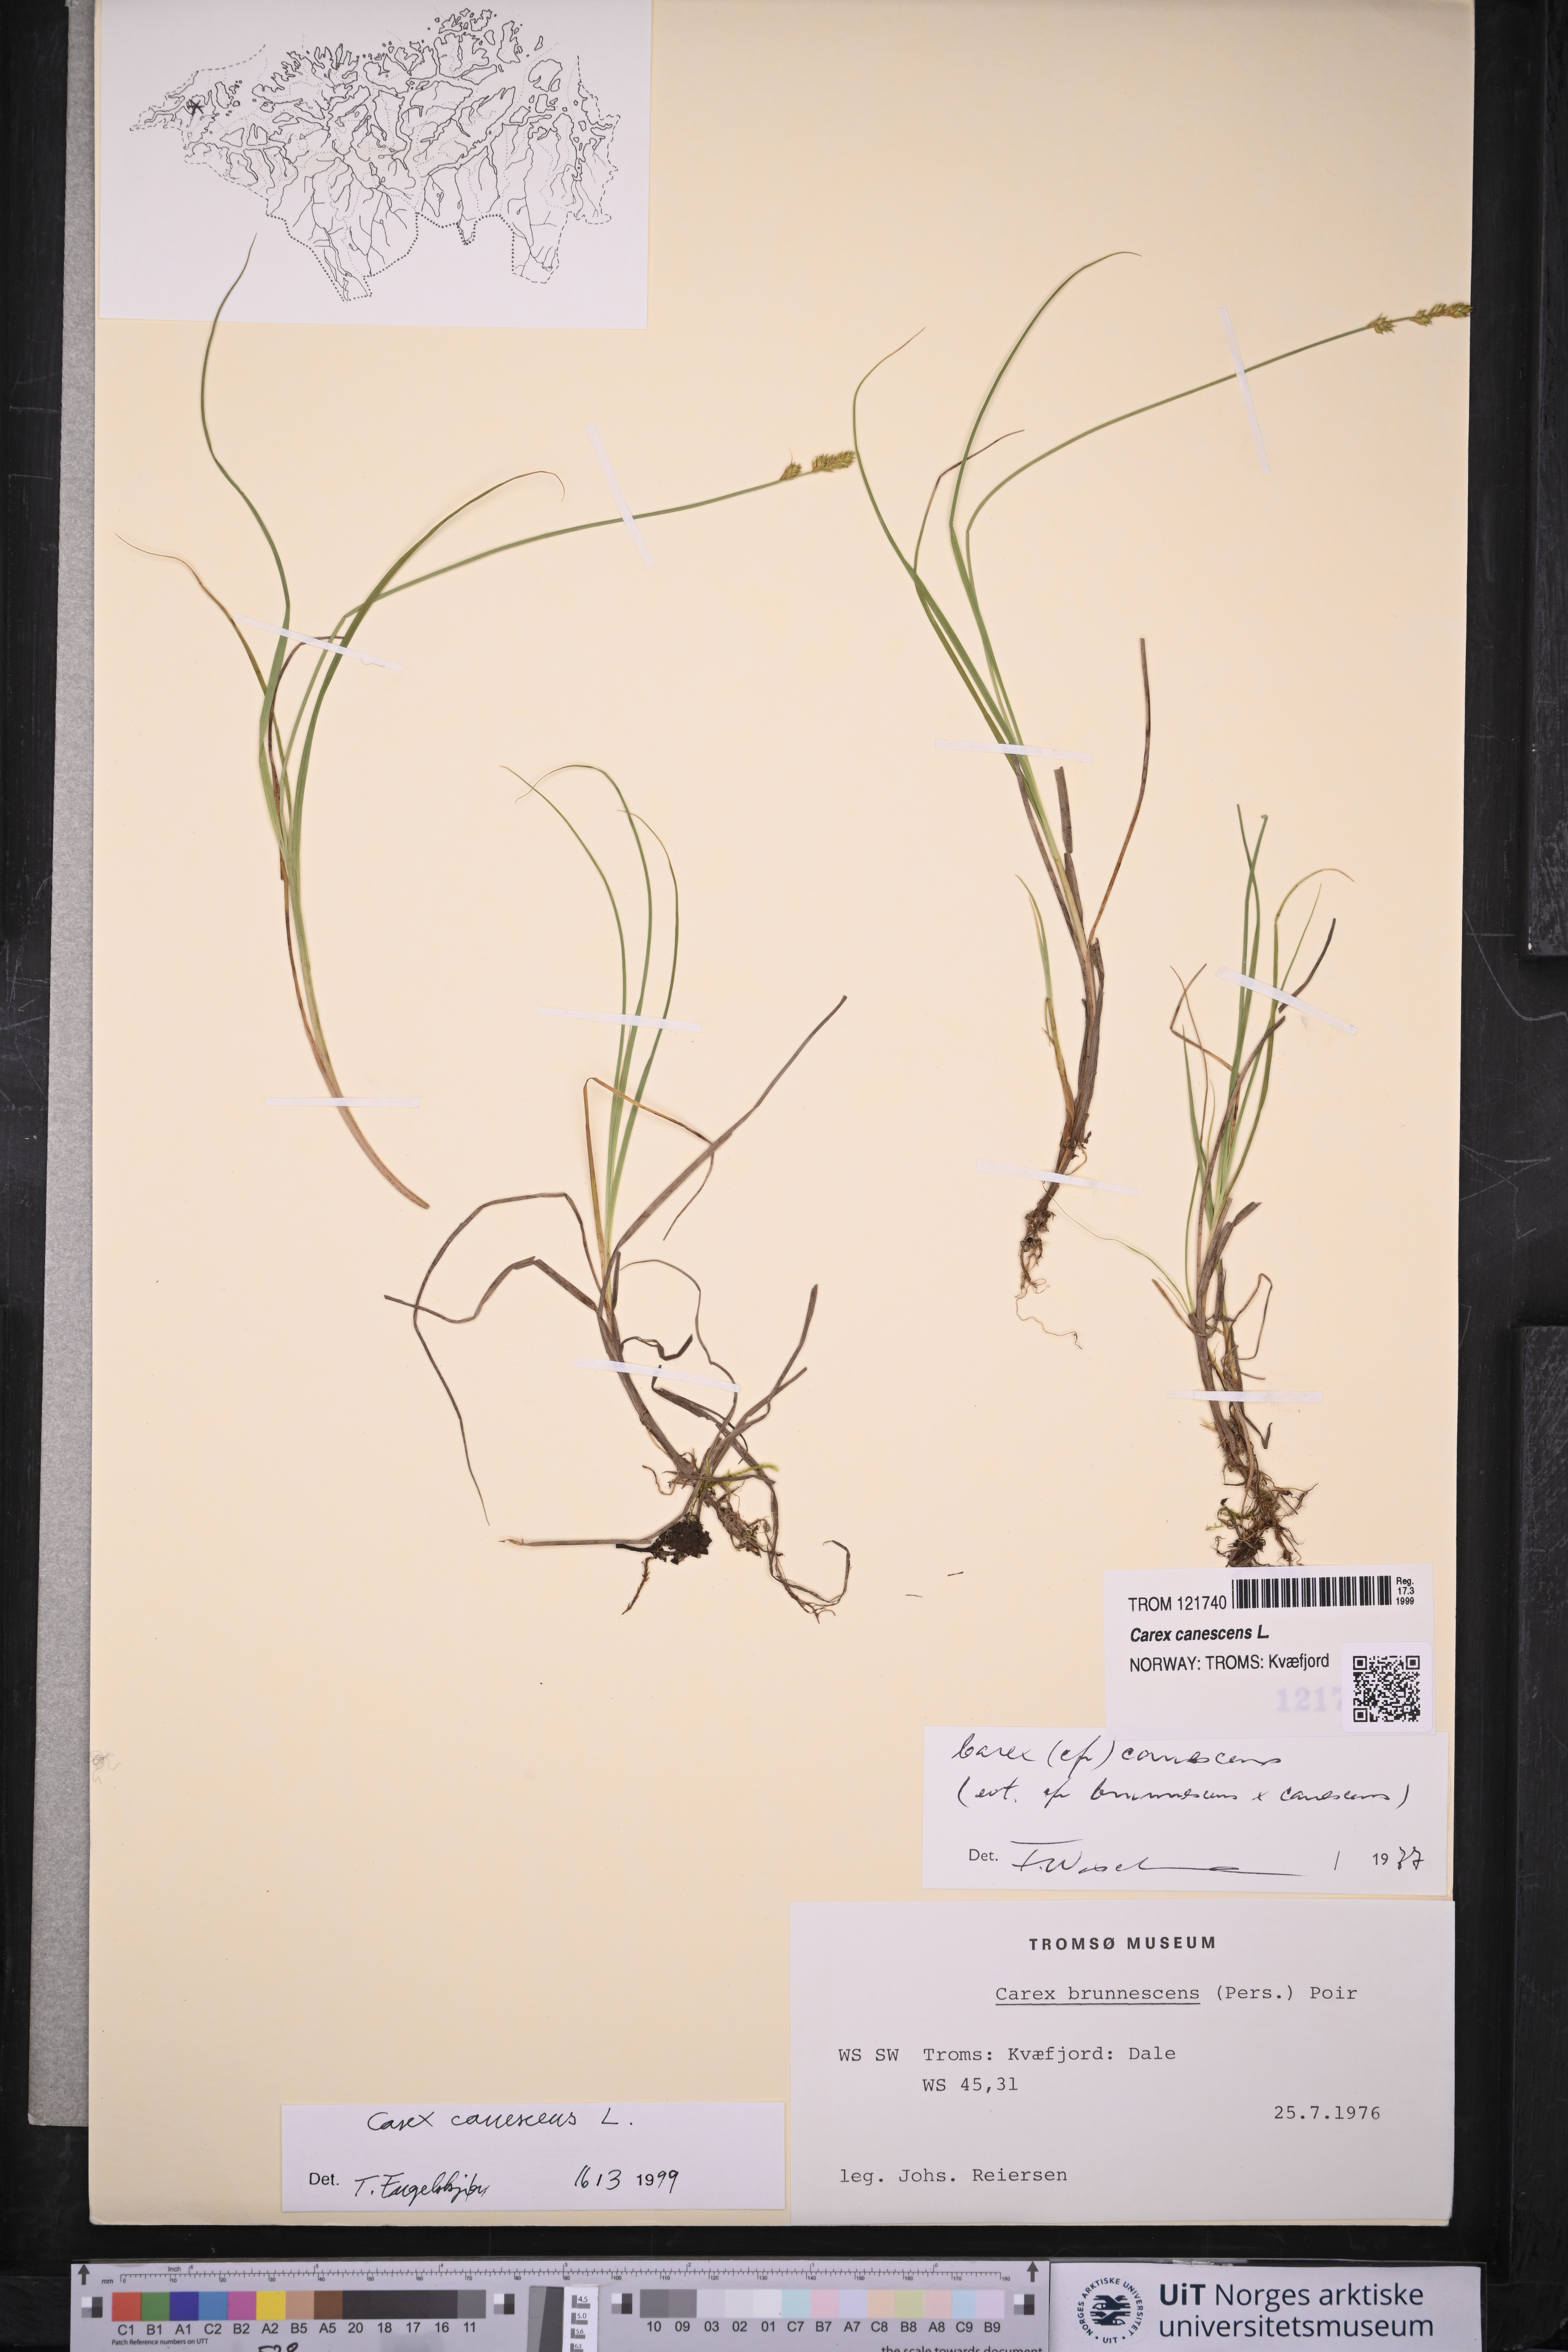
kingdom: Plantae
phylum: Tracheophyta
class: Liliopsida
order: Poales
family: Cyperaceae
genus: Carex
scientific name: Carex canescens
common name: White sedge
